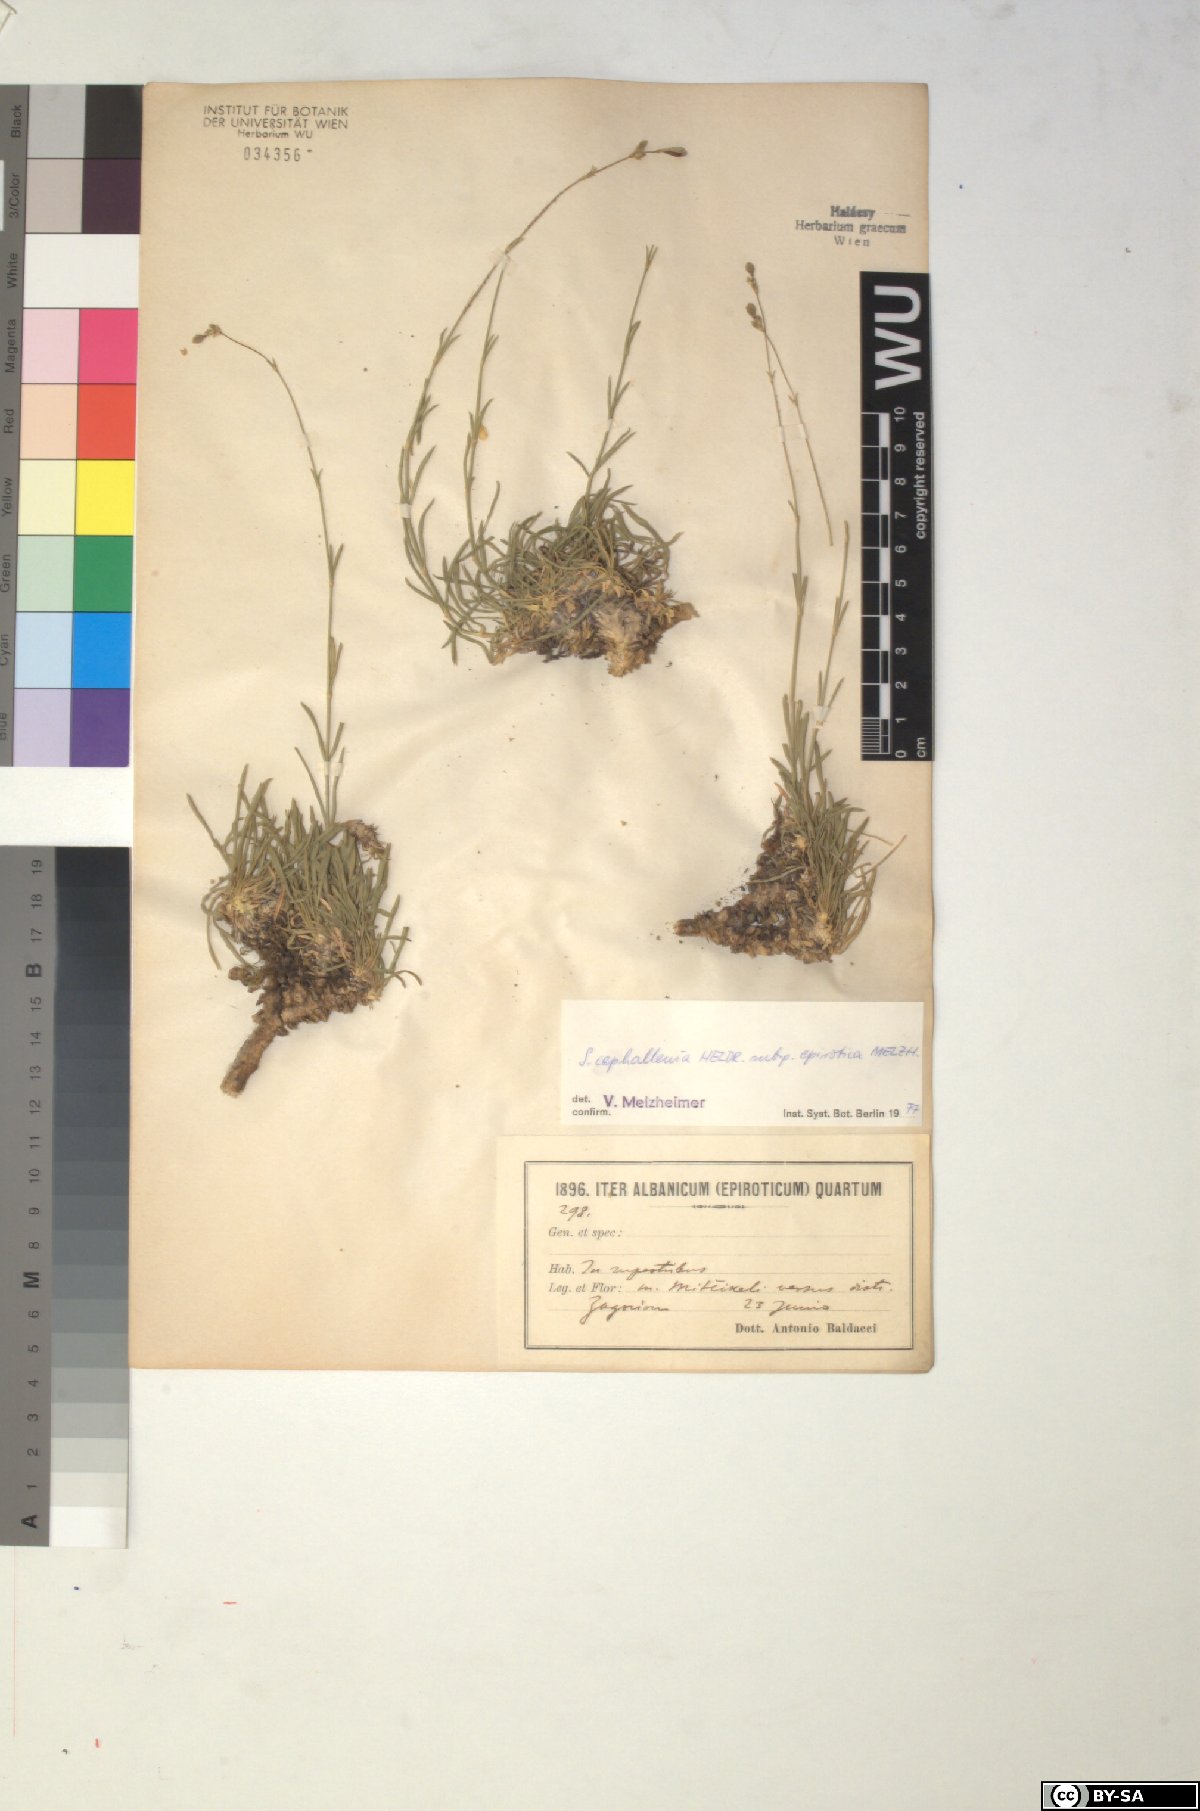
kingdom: Plantae
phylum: Tracheophyta
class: Magnoliopsida
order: Caryophyllales
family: Caryophyllaceae
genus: Silene
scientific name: Silene cephallenia
